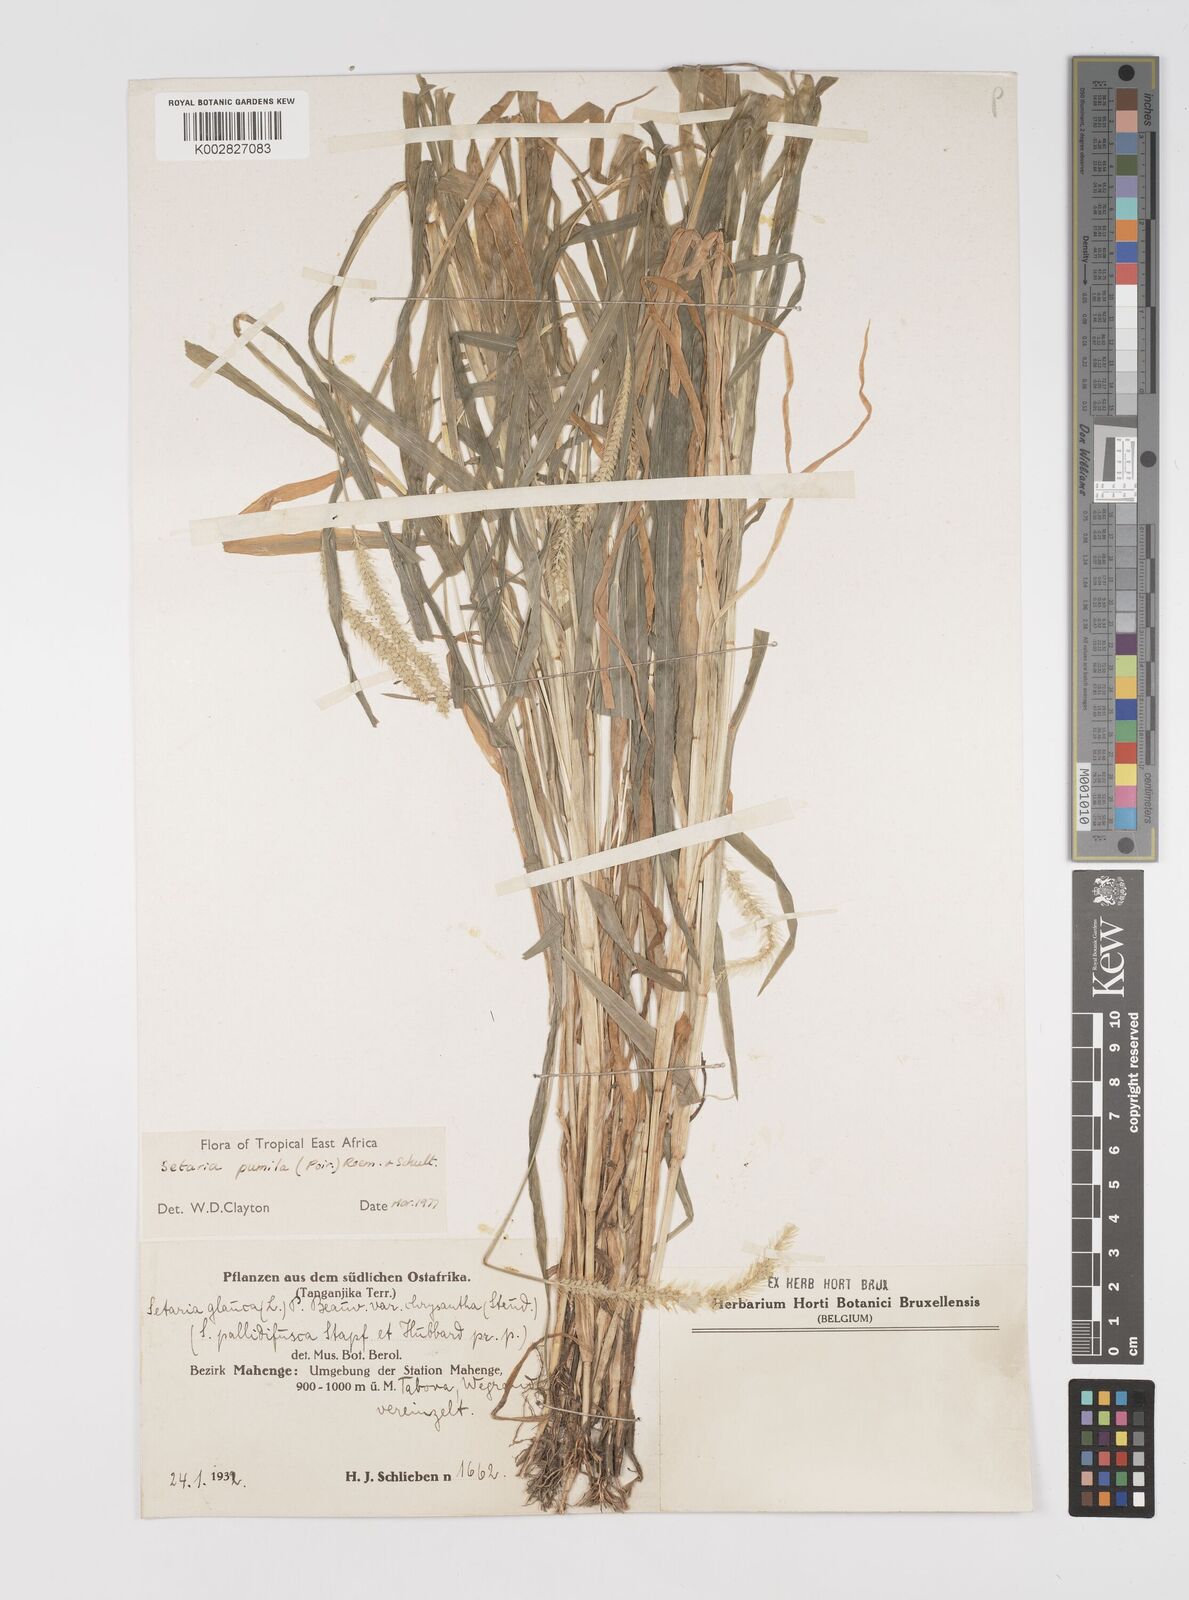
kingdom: Plantae
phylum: Tracheophyta
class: Liliopsida
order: Poales
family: Poaceae
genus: Setaria
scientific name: Setaria pumila
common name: Yellow bristle-grass
